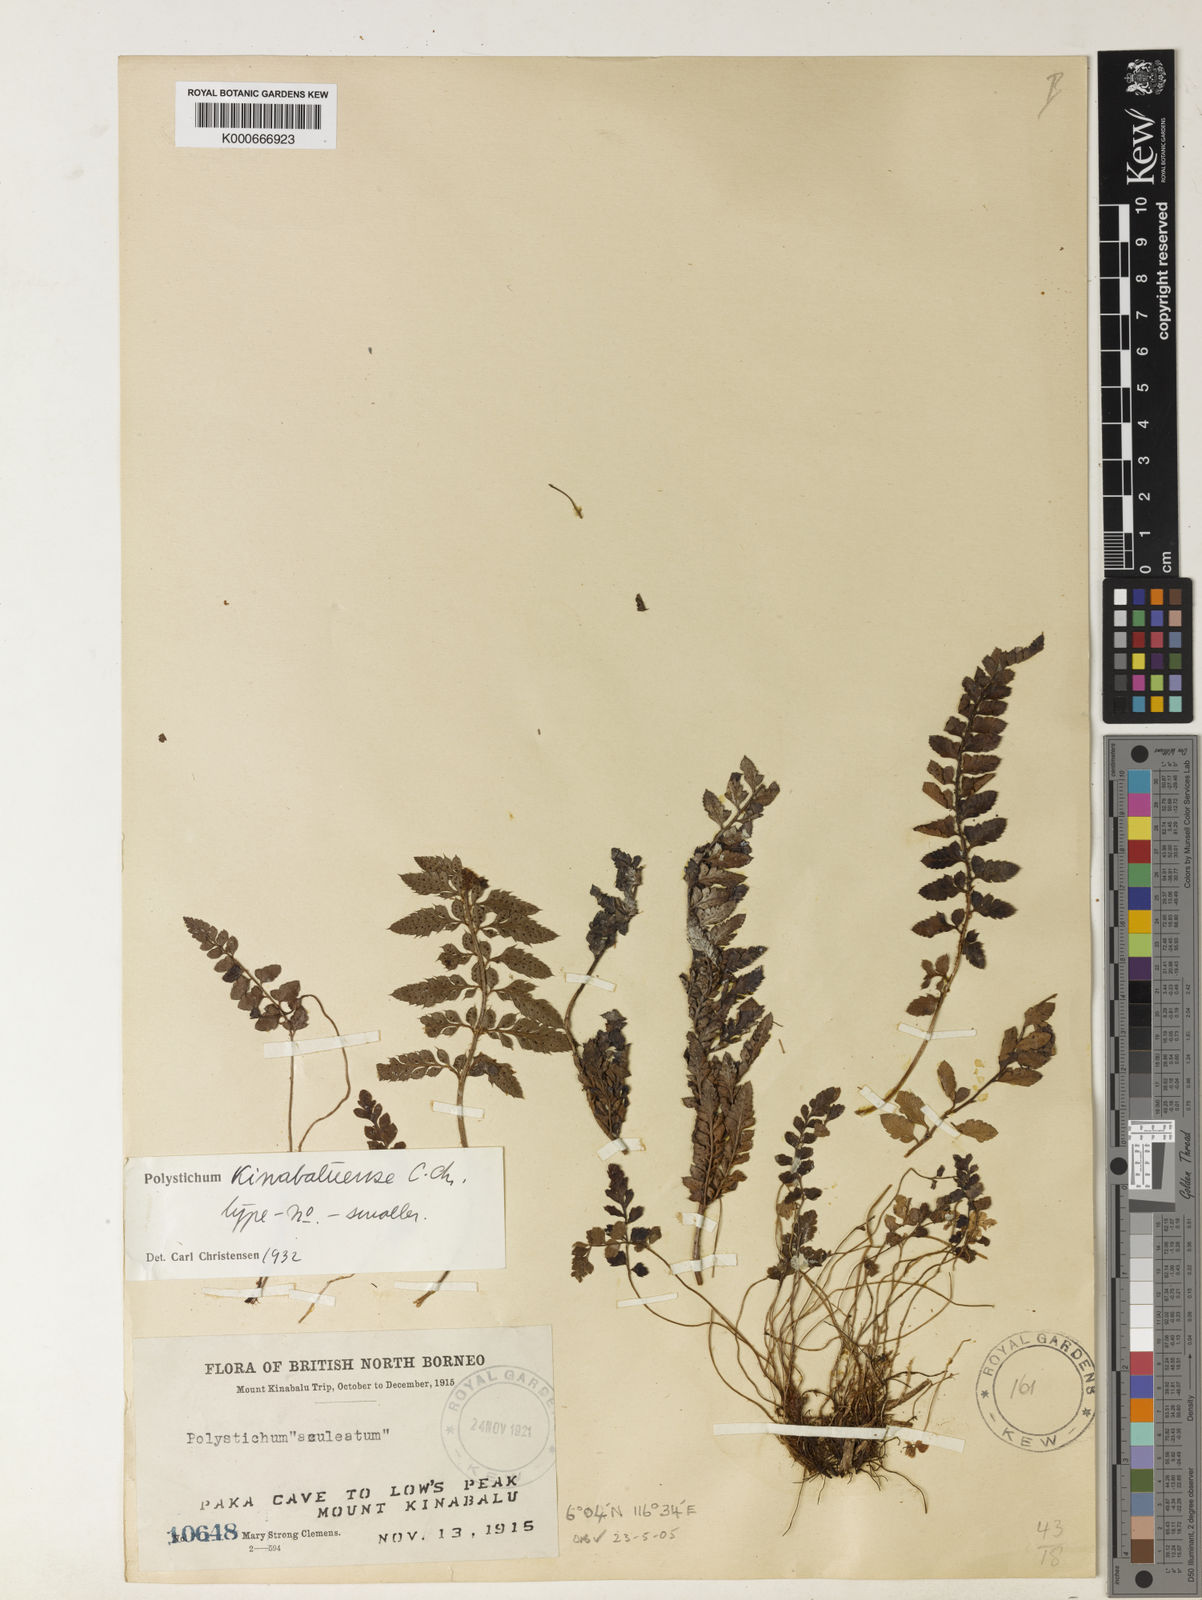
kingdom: Plantae
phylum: Tracheophyta
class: Polypodiopsida
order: Polypodiales
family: Dryopteridaceae
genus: Polystichum
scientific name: Polystichum kinabaluense
